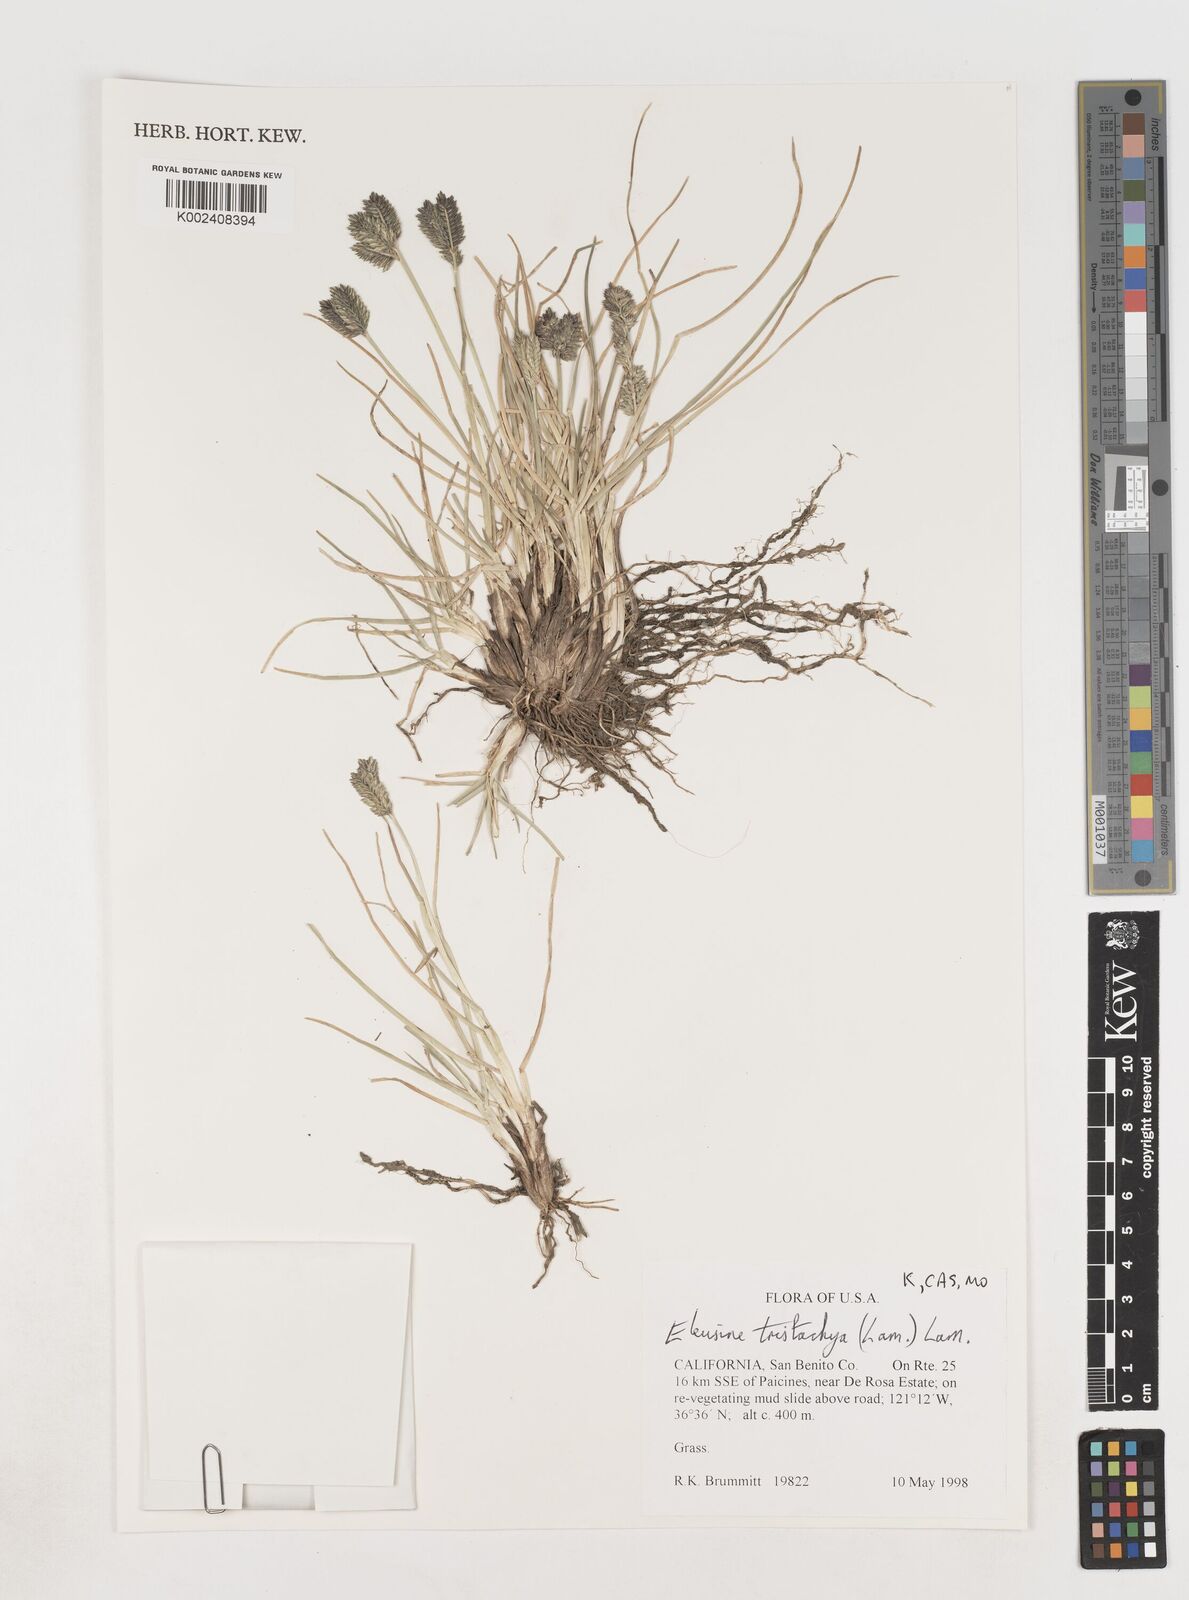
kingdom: Plantae
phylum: Tracheophyta
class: Liliopsida
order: Poales
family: Poaceae
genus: Eleusine
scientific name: Eleusine tristachya
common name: American yard-grass
